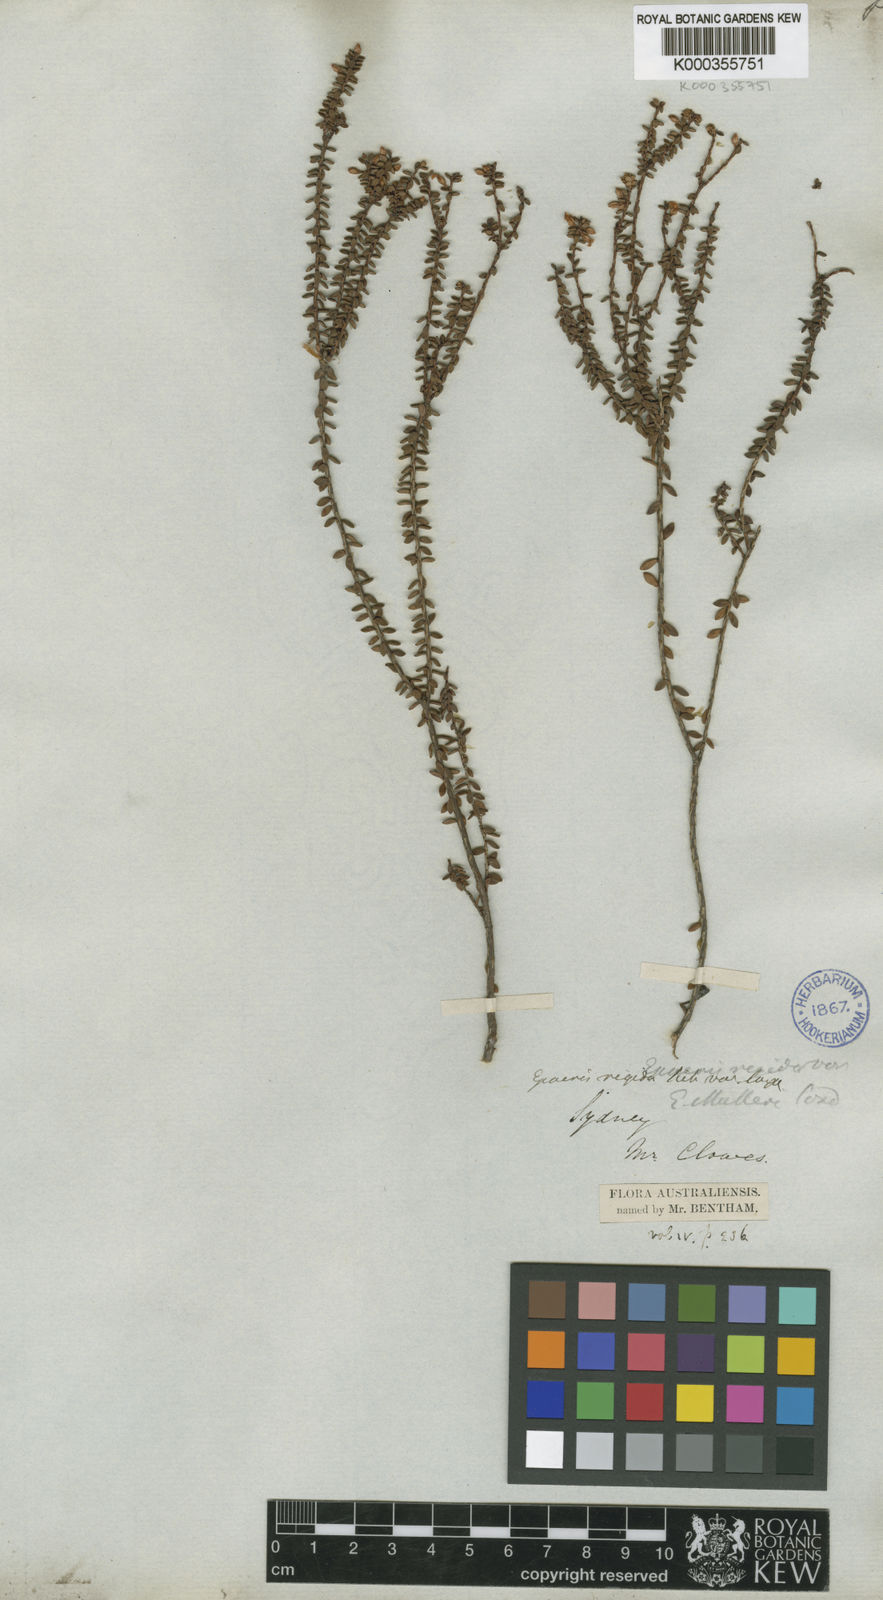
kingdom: Plantae
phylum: Tracheophyta
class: Magnoliopsida
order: Ericales
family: Ericaceae
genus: Epacris
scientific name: Epacris muelleri
